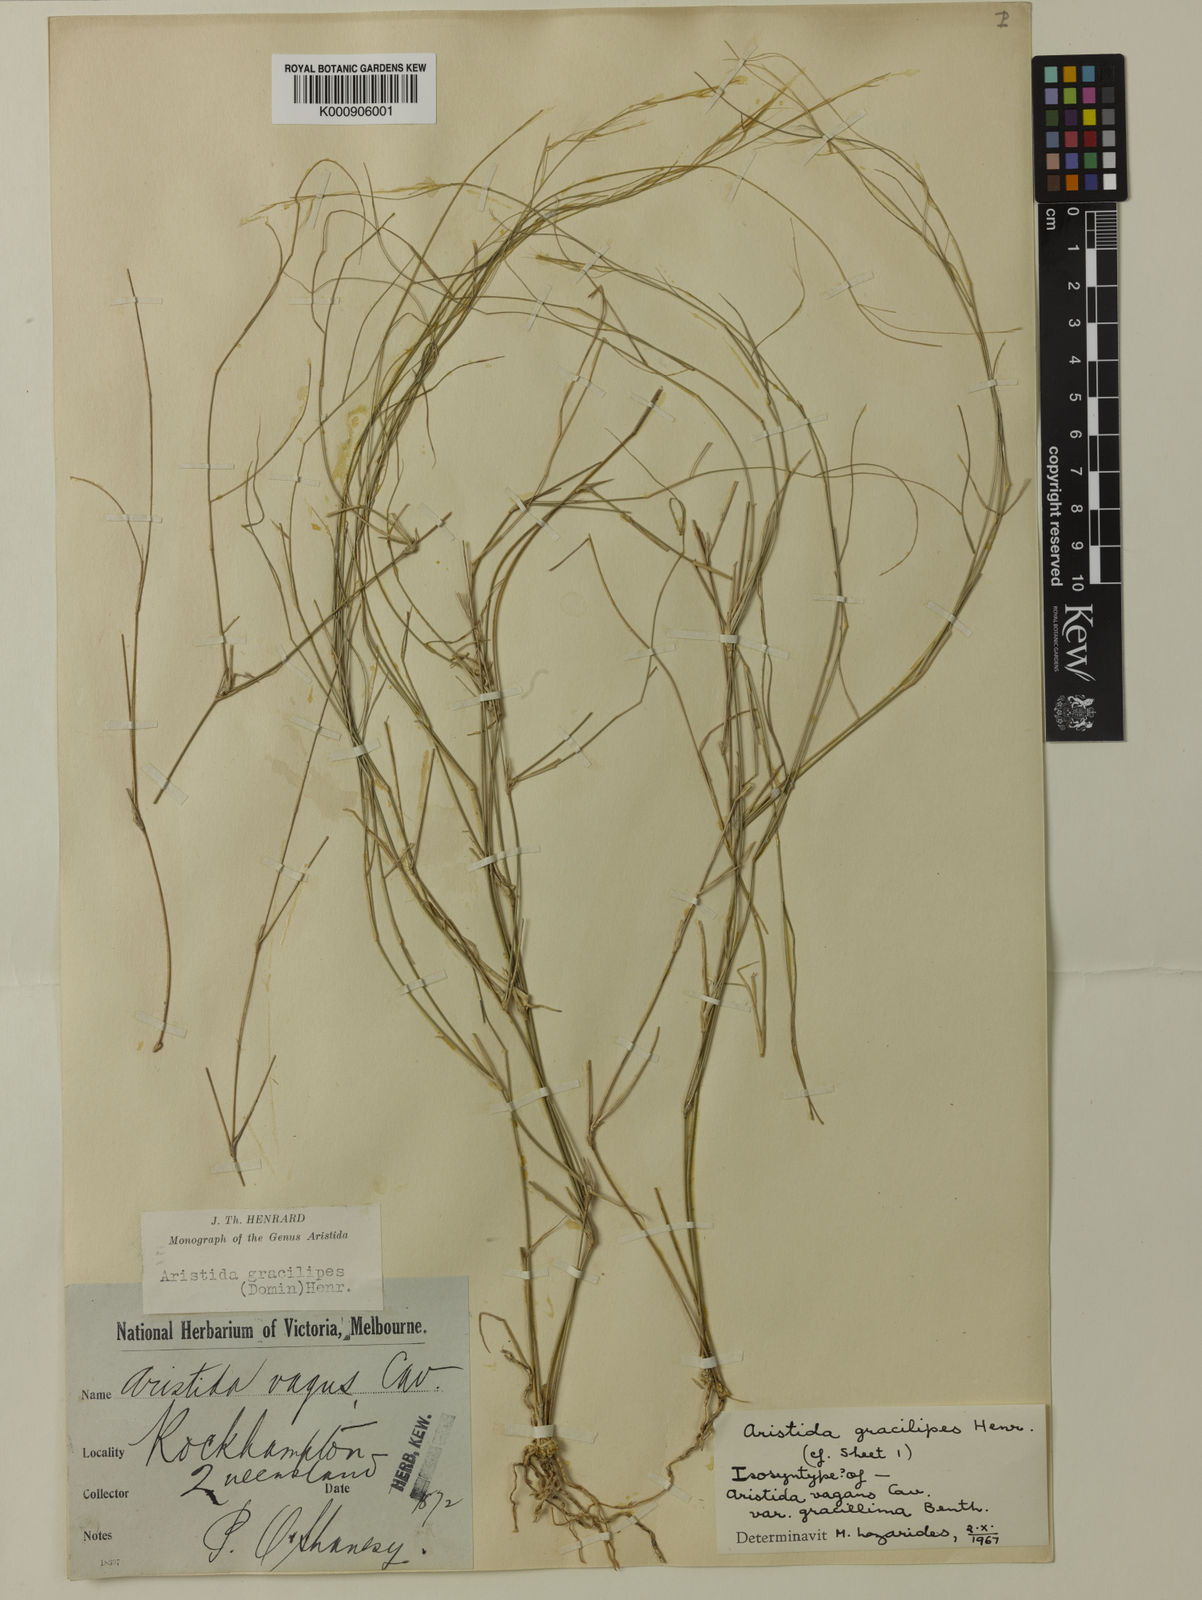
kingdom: Plantae
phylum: Tracheophyta
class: Liliopsida
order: Poales
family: Poaceae
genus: Aristida
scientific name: Aristida gracilipes
